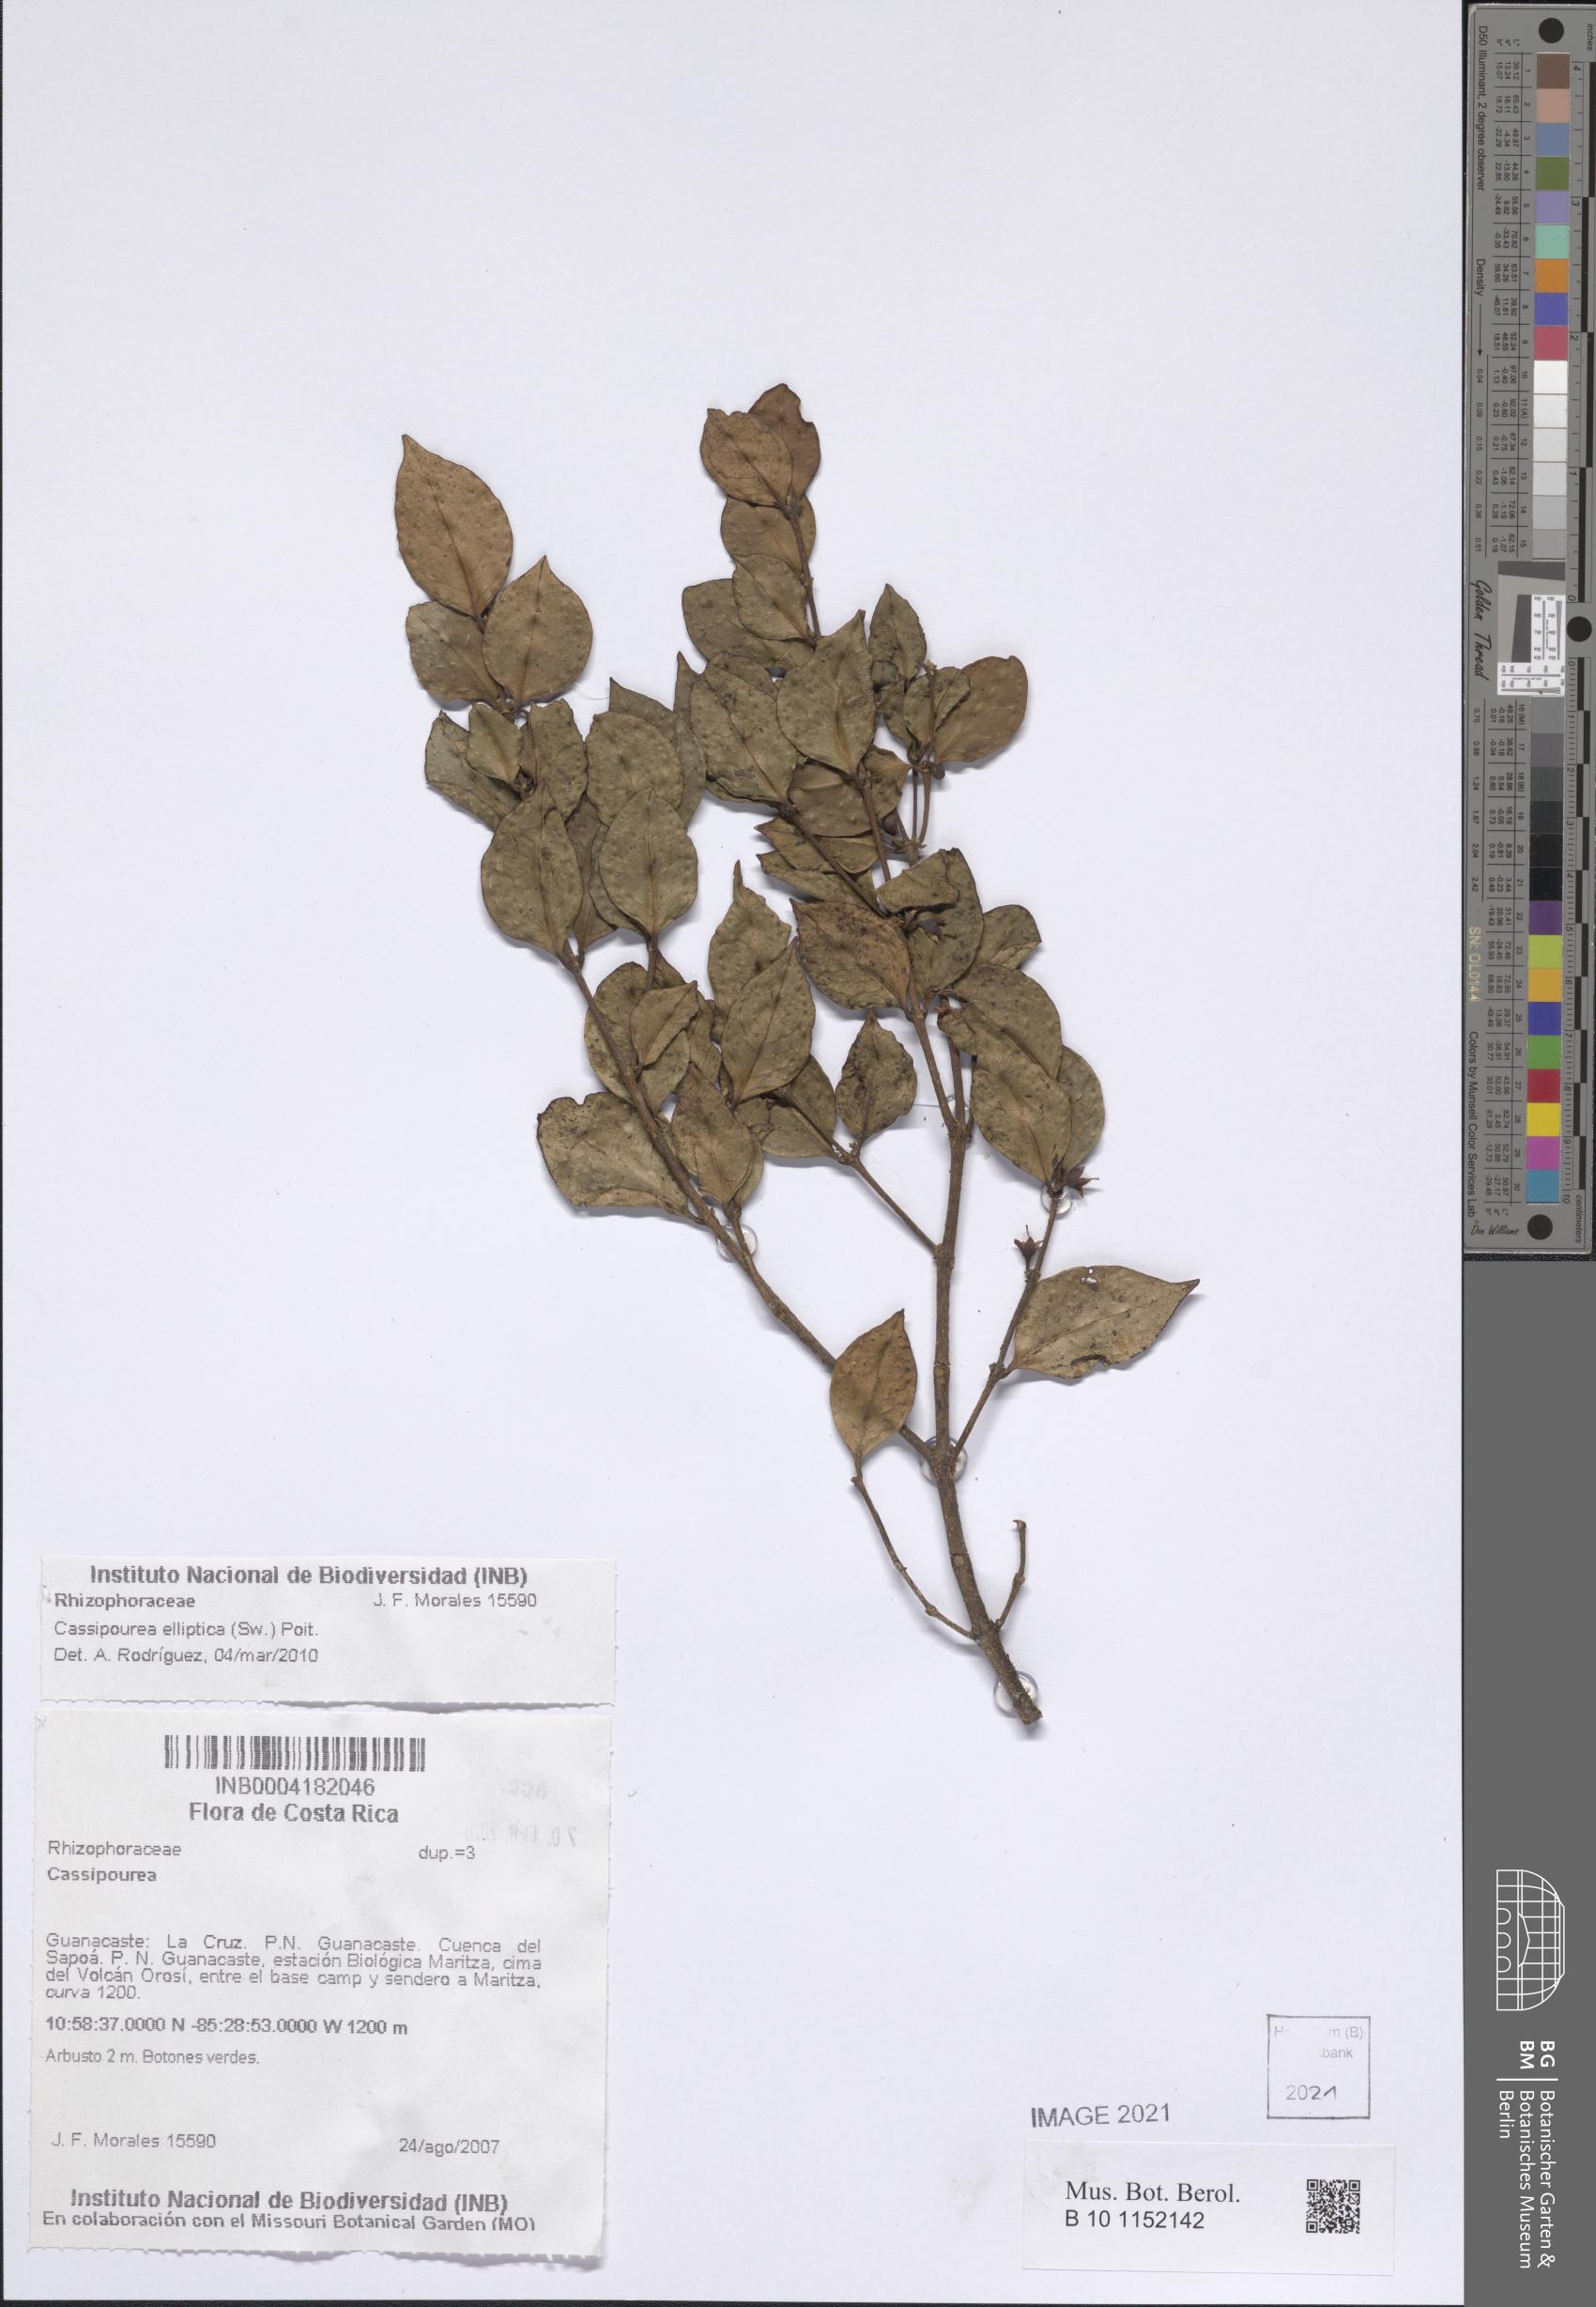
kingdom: Plantae
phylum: Tracheophyta
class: Magnoliopsida
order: Malpighiales
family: Rhizophoraceae
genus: Cassipourea
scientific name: Cassipourea elliptica
